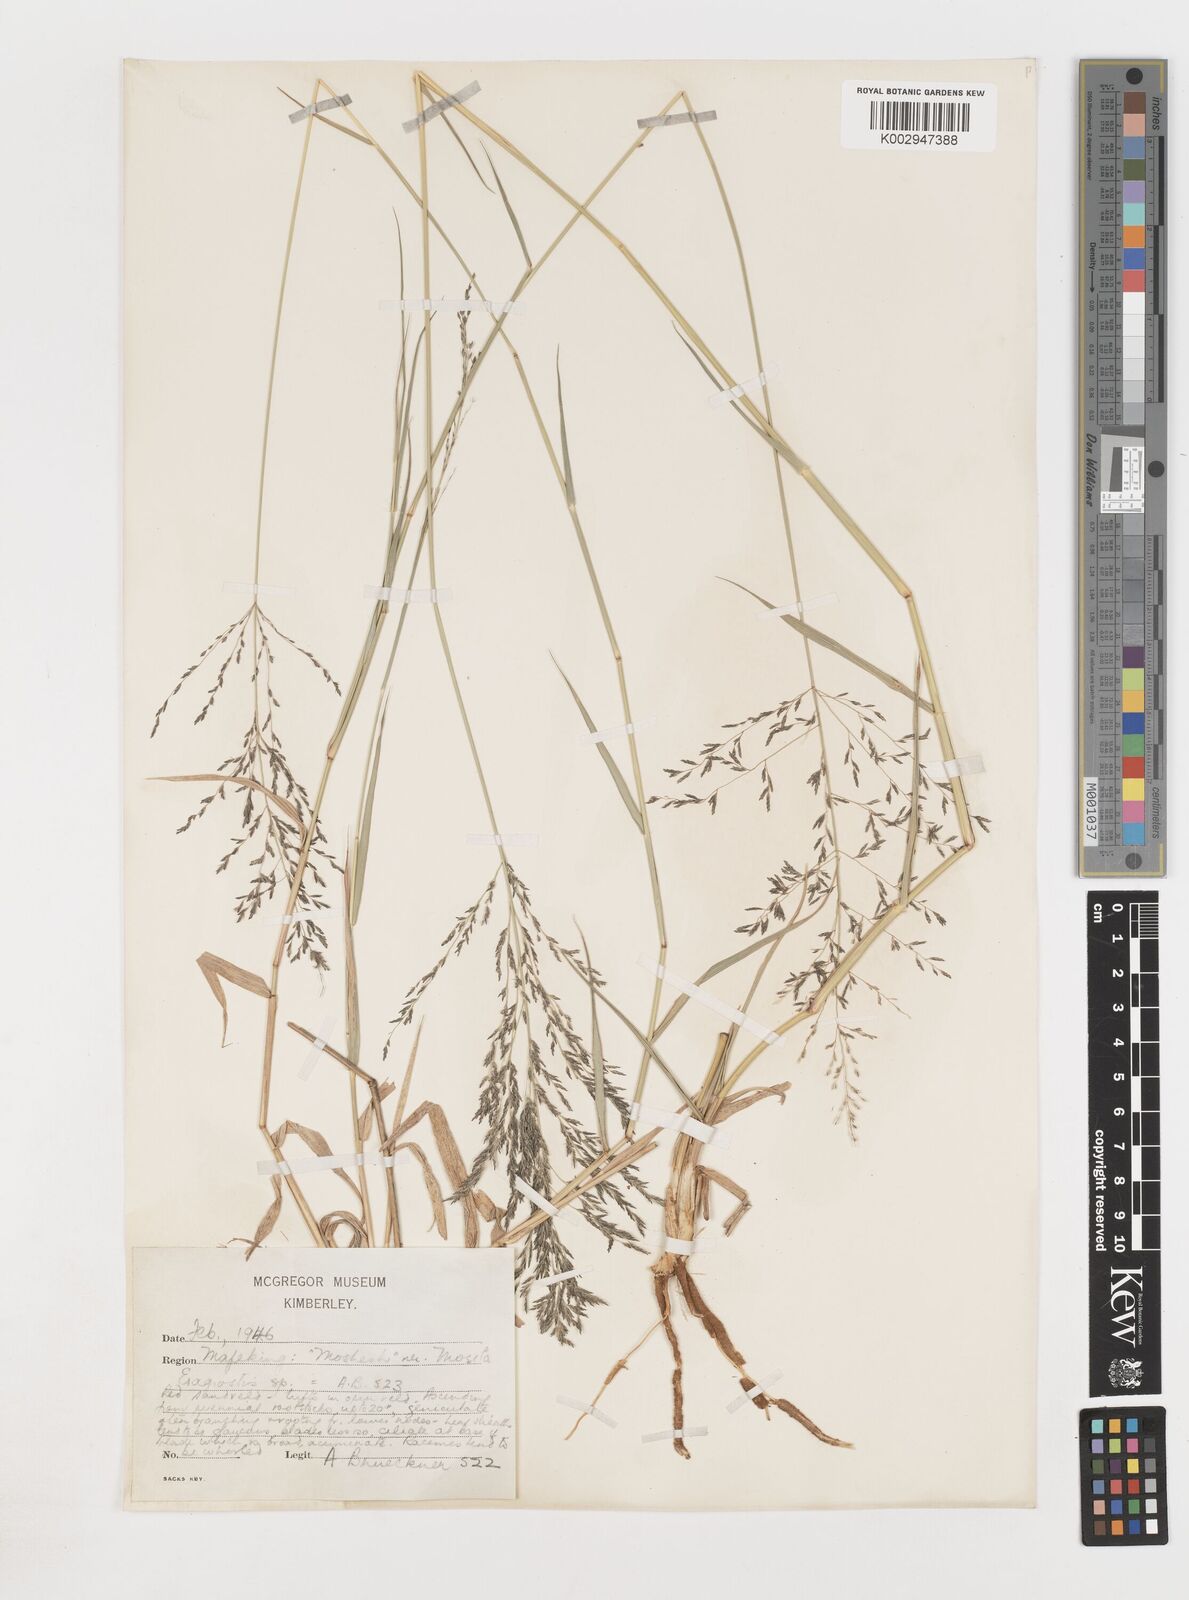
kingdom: Plantae
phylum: Tracheophyta
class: Liliopsida
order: Poales
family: Poaceae
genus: Eragrostis
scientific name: Eragrostis
